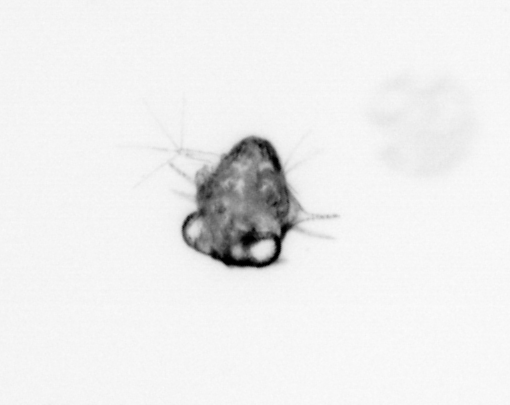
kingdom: Animalia
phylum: Arthropoda
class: Malacostraca
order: Decapoda
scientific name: Decapoda
